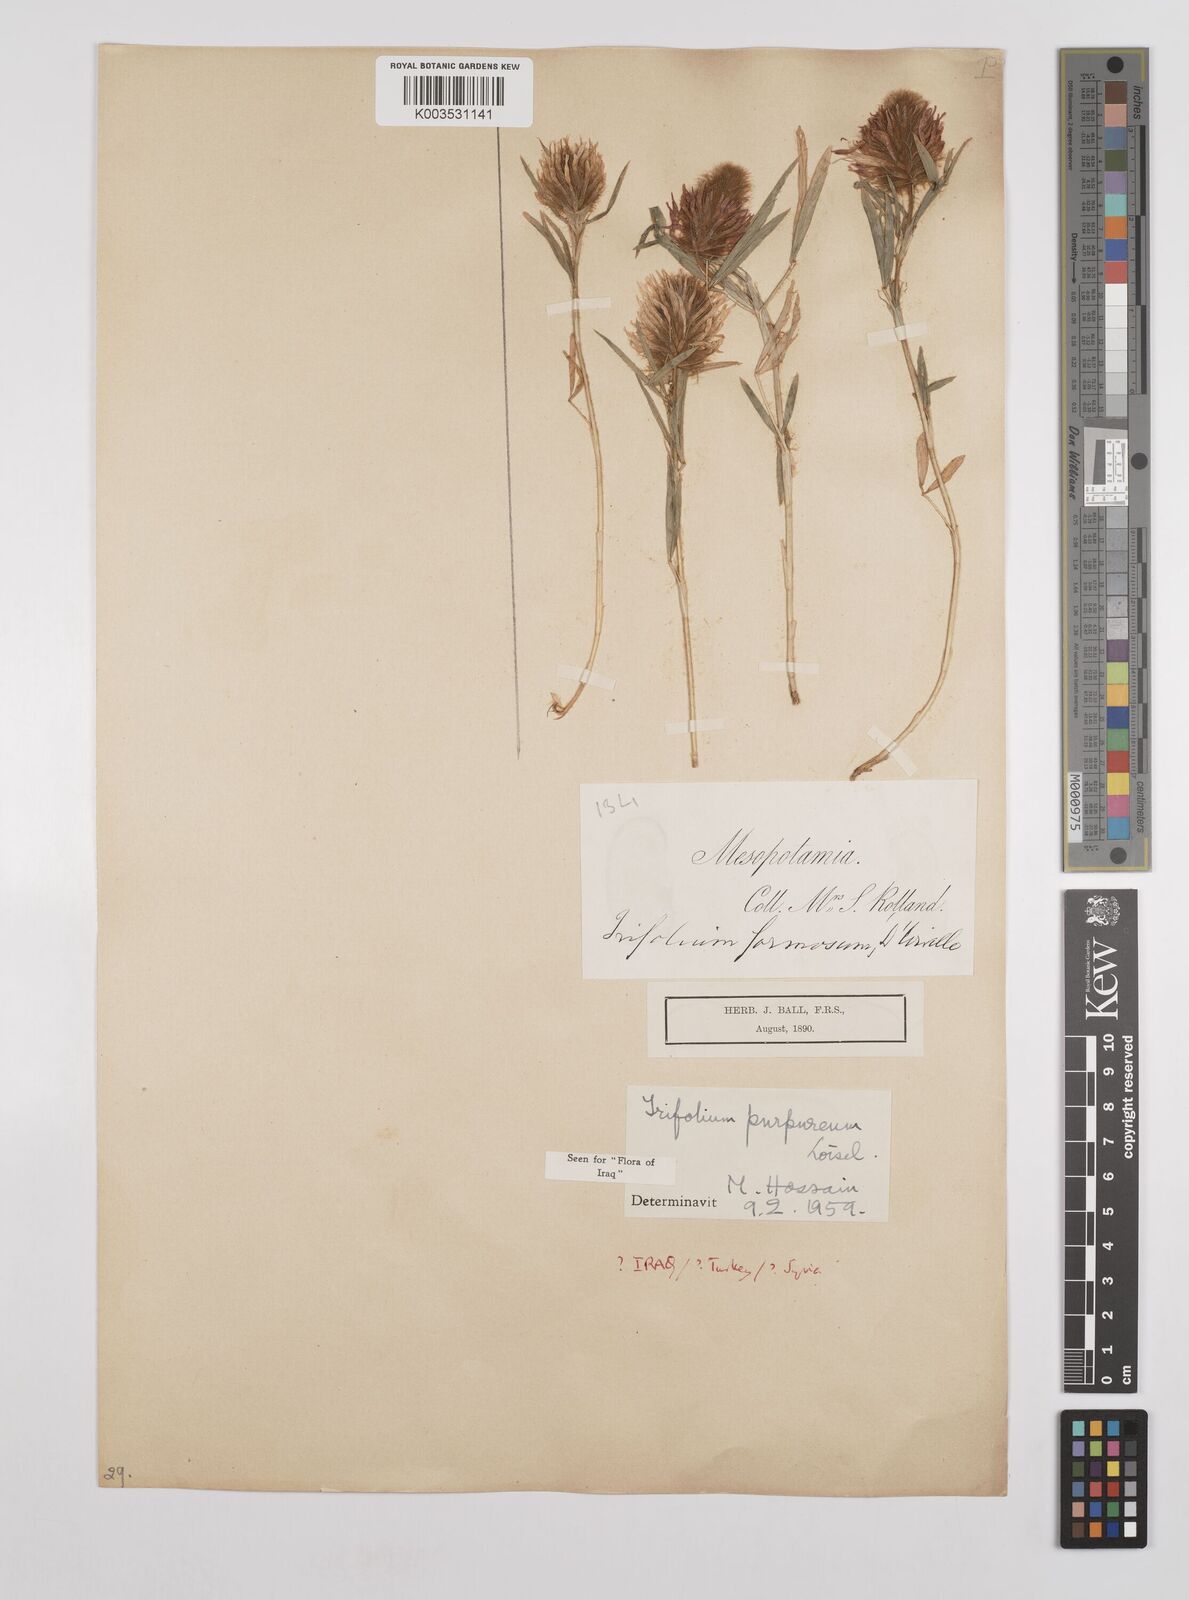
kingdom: Plantae
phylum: Tracheophyta
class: Magnoliopsida
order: Fabales
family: Fabaceae
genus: Trifolium
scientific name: Trifolium purpureum
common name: Purple clover
